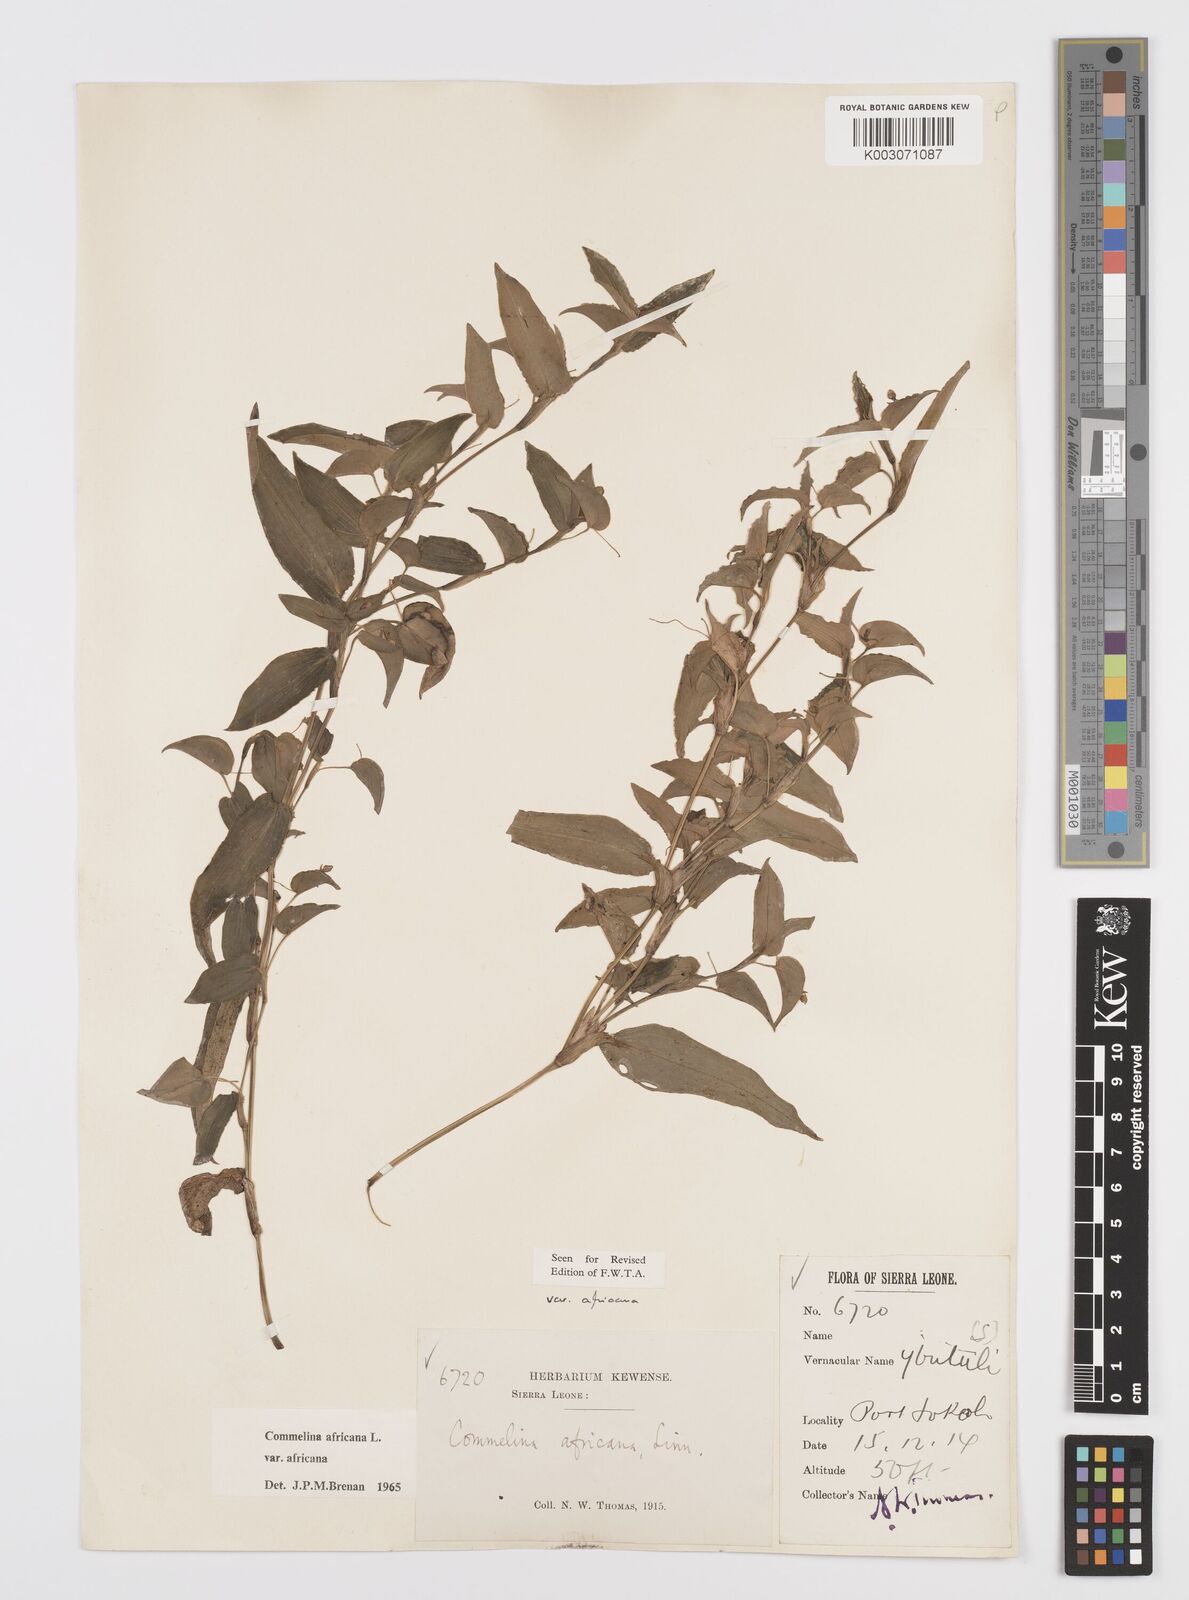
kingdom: Plantae
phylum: Tracheophyta
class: Liliopsida
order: Commelinales
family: Commelinaceae
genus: Commelina
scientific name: Commelina africana
